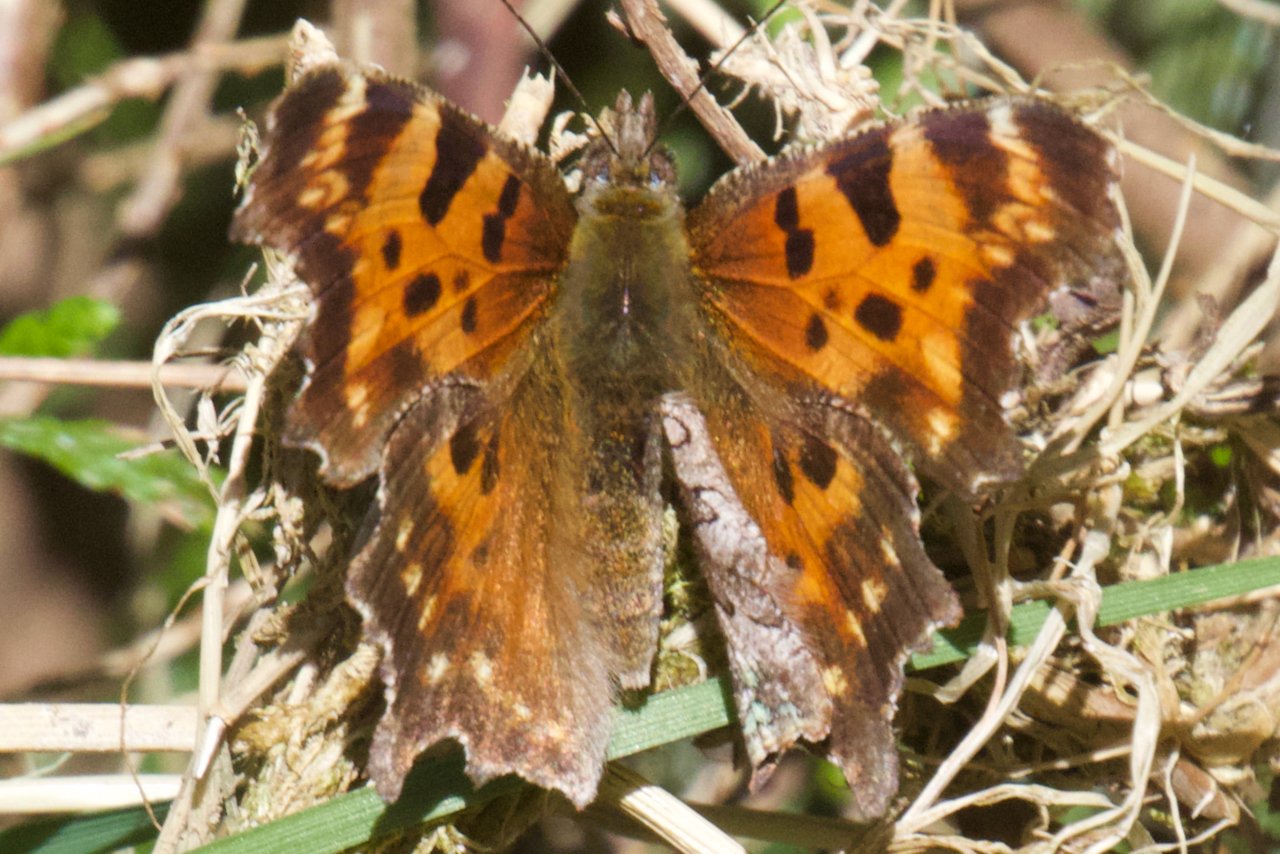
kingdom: Animalia
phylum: Arthropoda
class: Insecta
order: Lepidoptera
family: Nymphalidae
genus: Polygonia
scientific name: Polygonia faunus
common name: Green Comma
